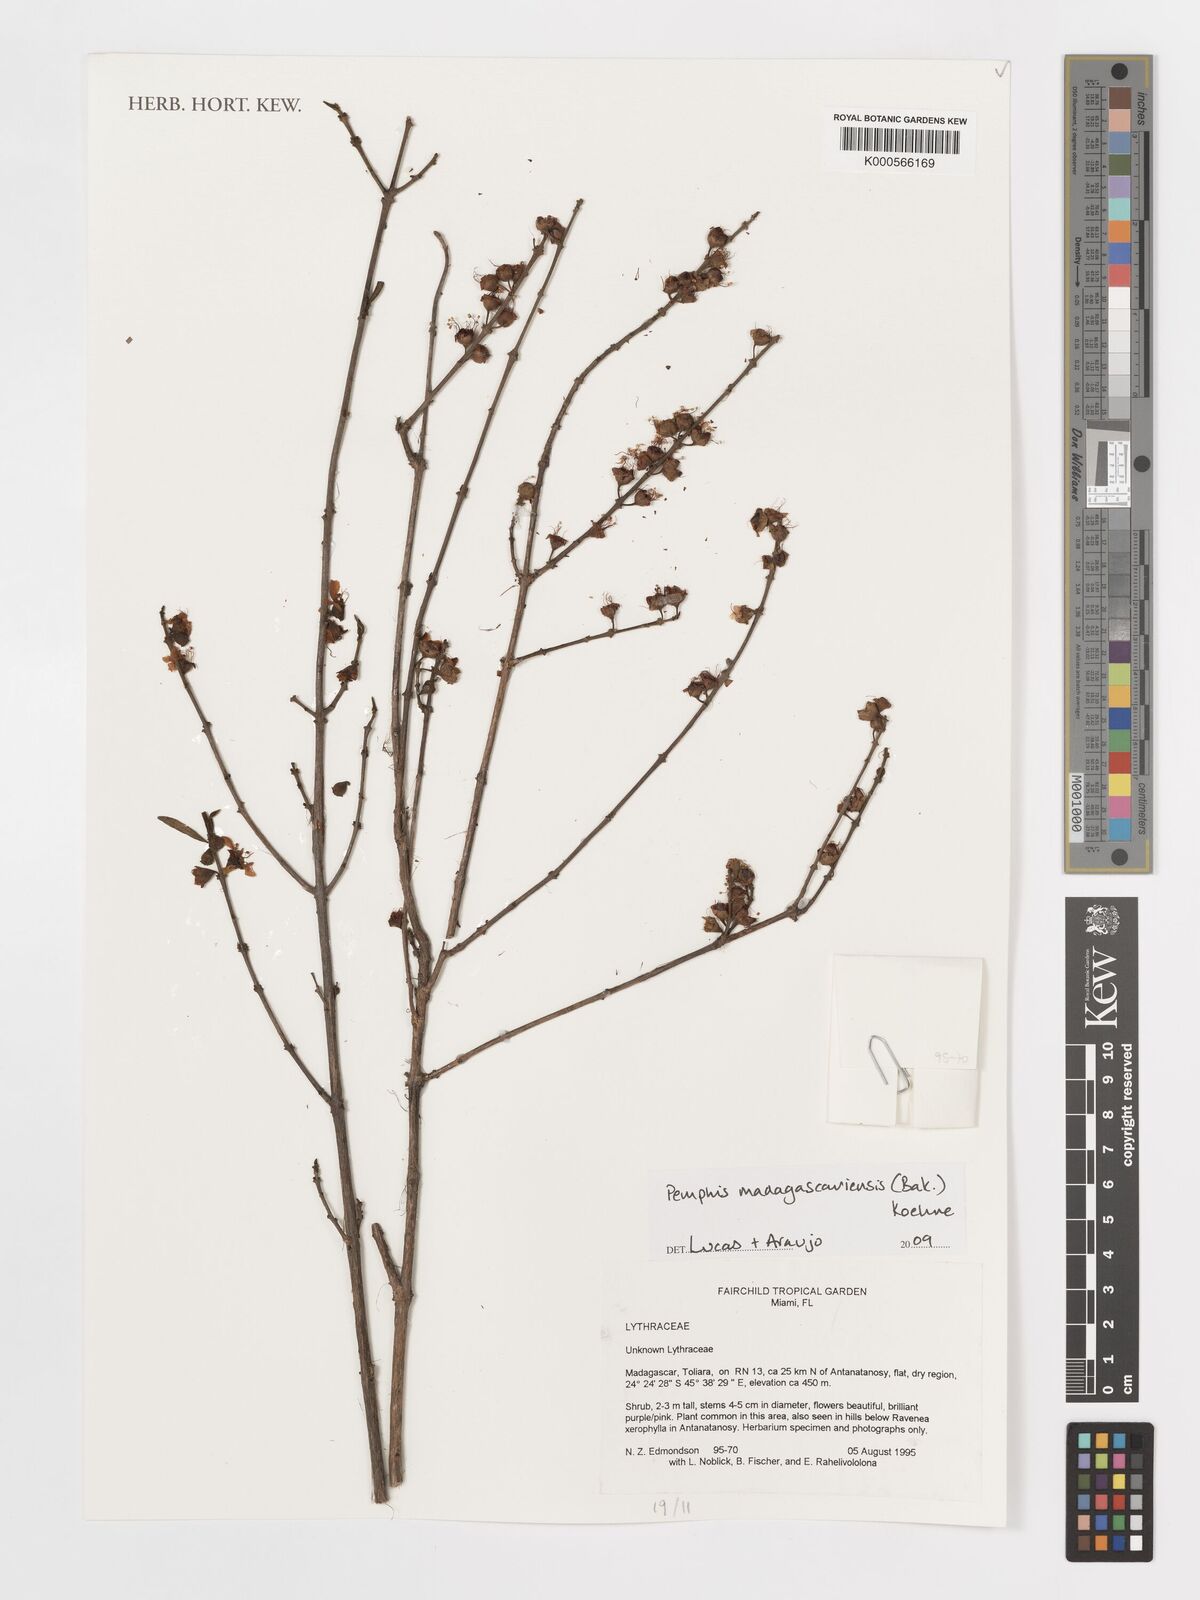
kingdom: Plantae
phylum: Tracheophyta
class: Magnoliopsida
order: Myrtales
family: Lythraceae
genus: Koehneria
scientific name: Koehneria madagascariensis
